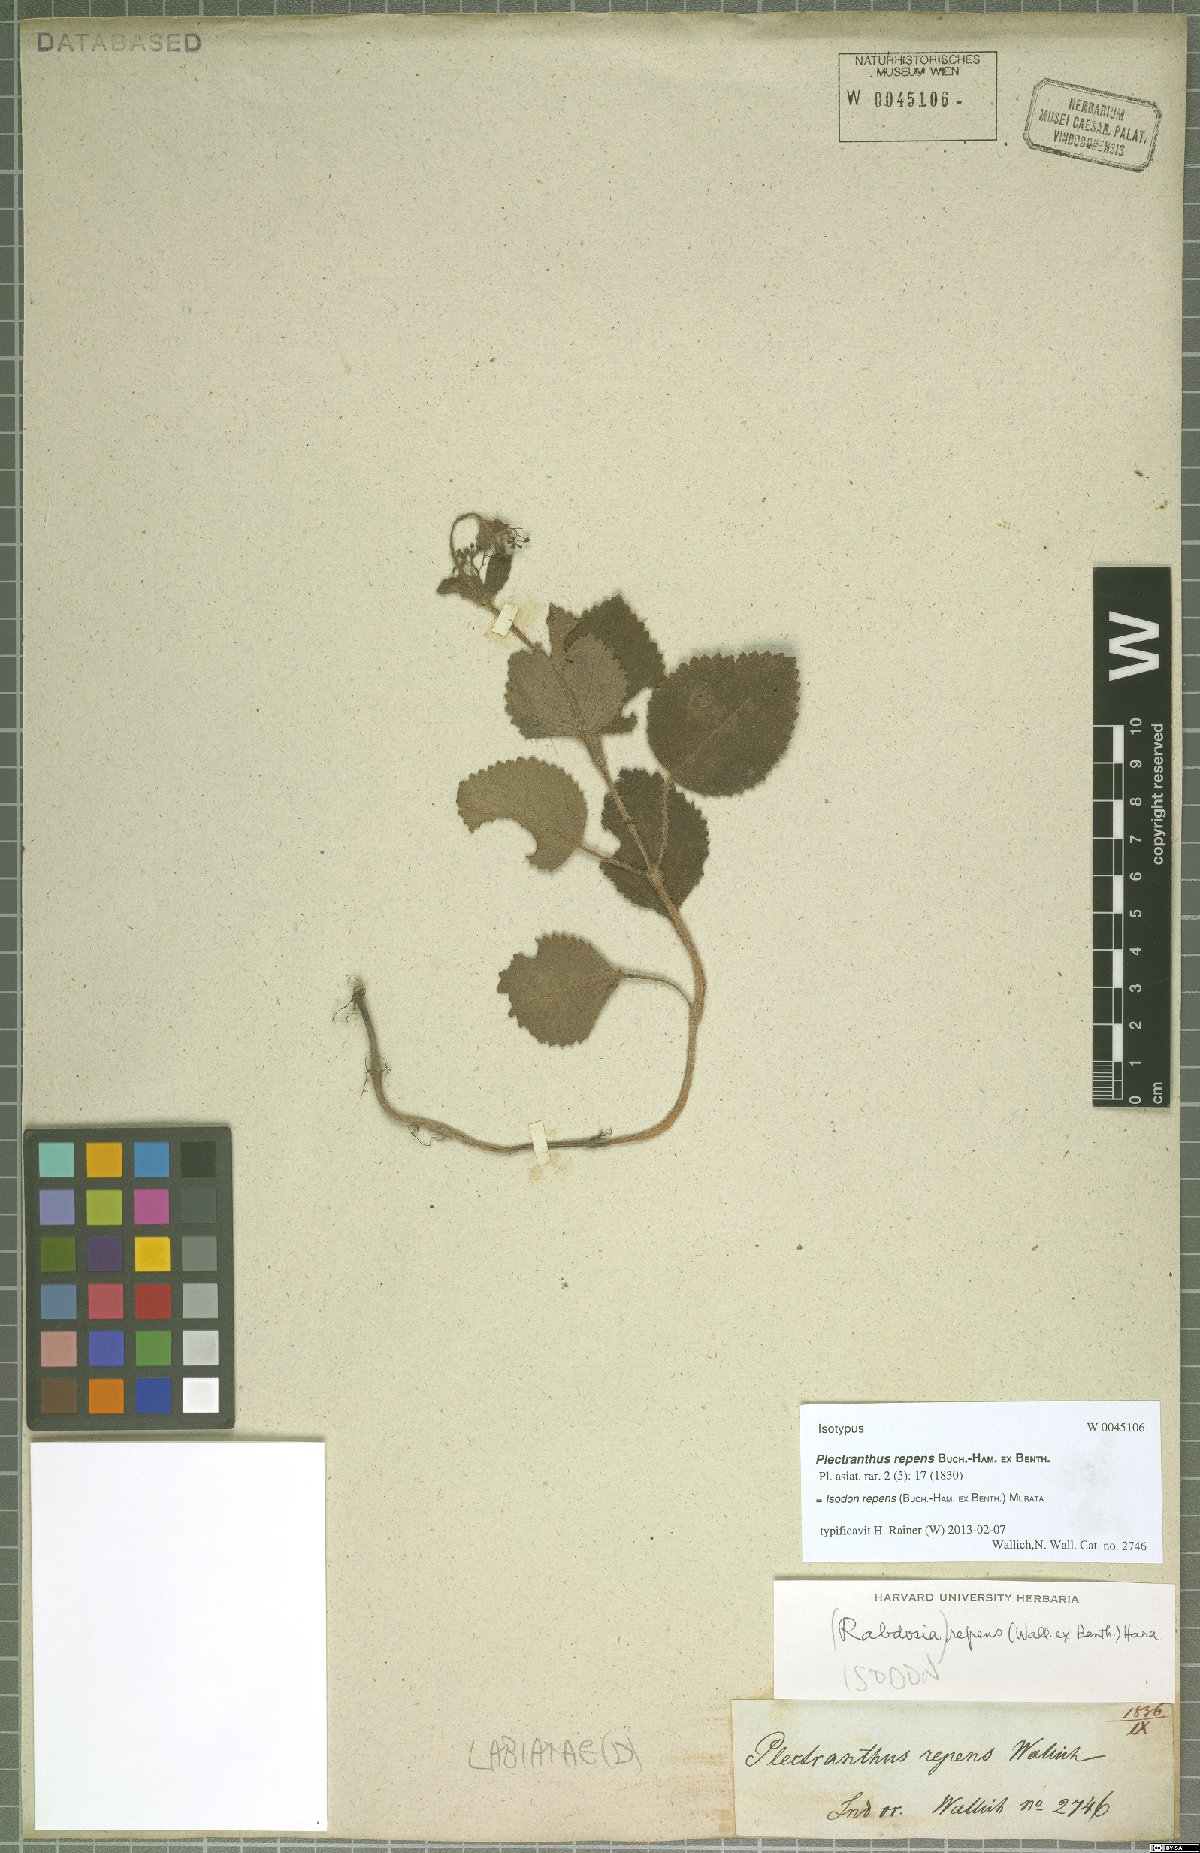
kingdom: Plantae
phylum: Tracheophyta
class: Magnoliopsida
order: Lamiales
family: Lamiaceae
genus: Isodon
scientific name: Isodon repens
